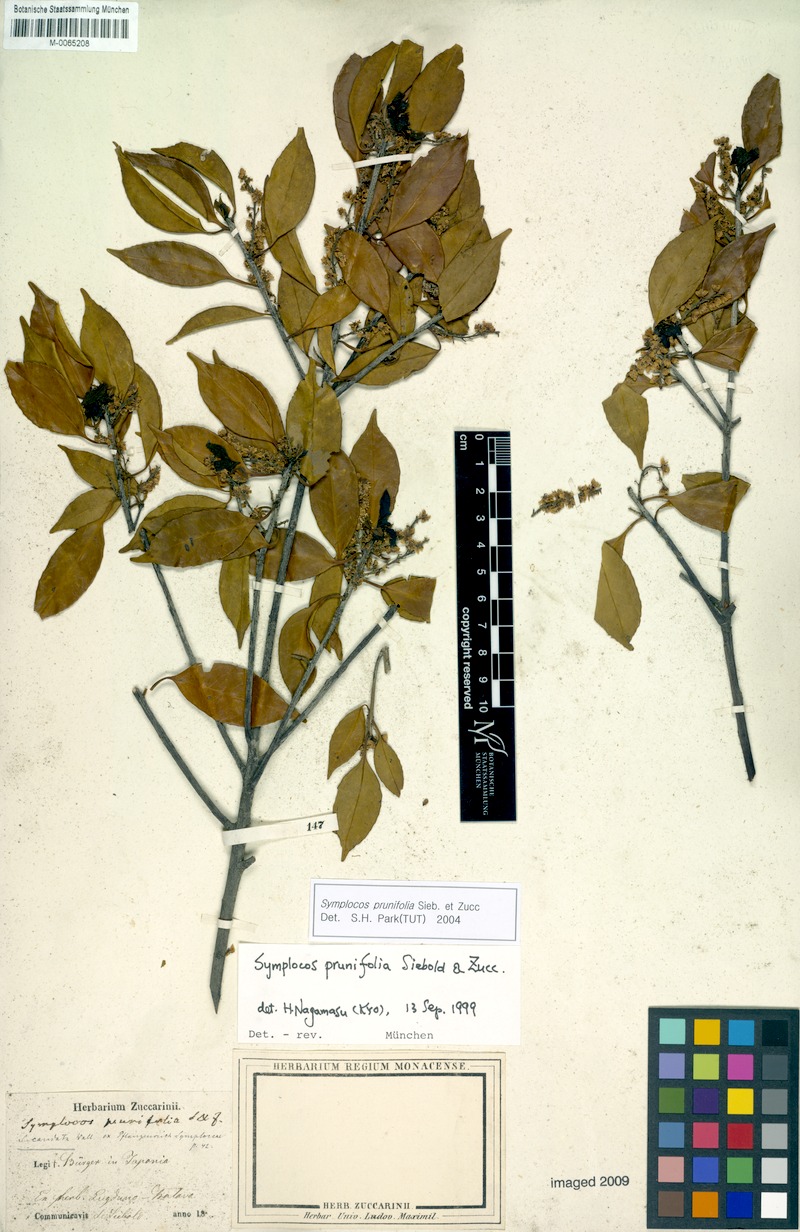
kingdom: Plantae
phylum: Tracheophyta
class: Magnoliopsida
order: Ericales
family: Symplocaceae
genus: Symplocos
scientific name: Symplocos sumuntia
